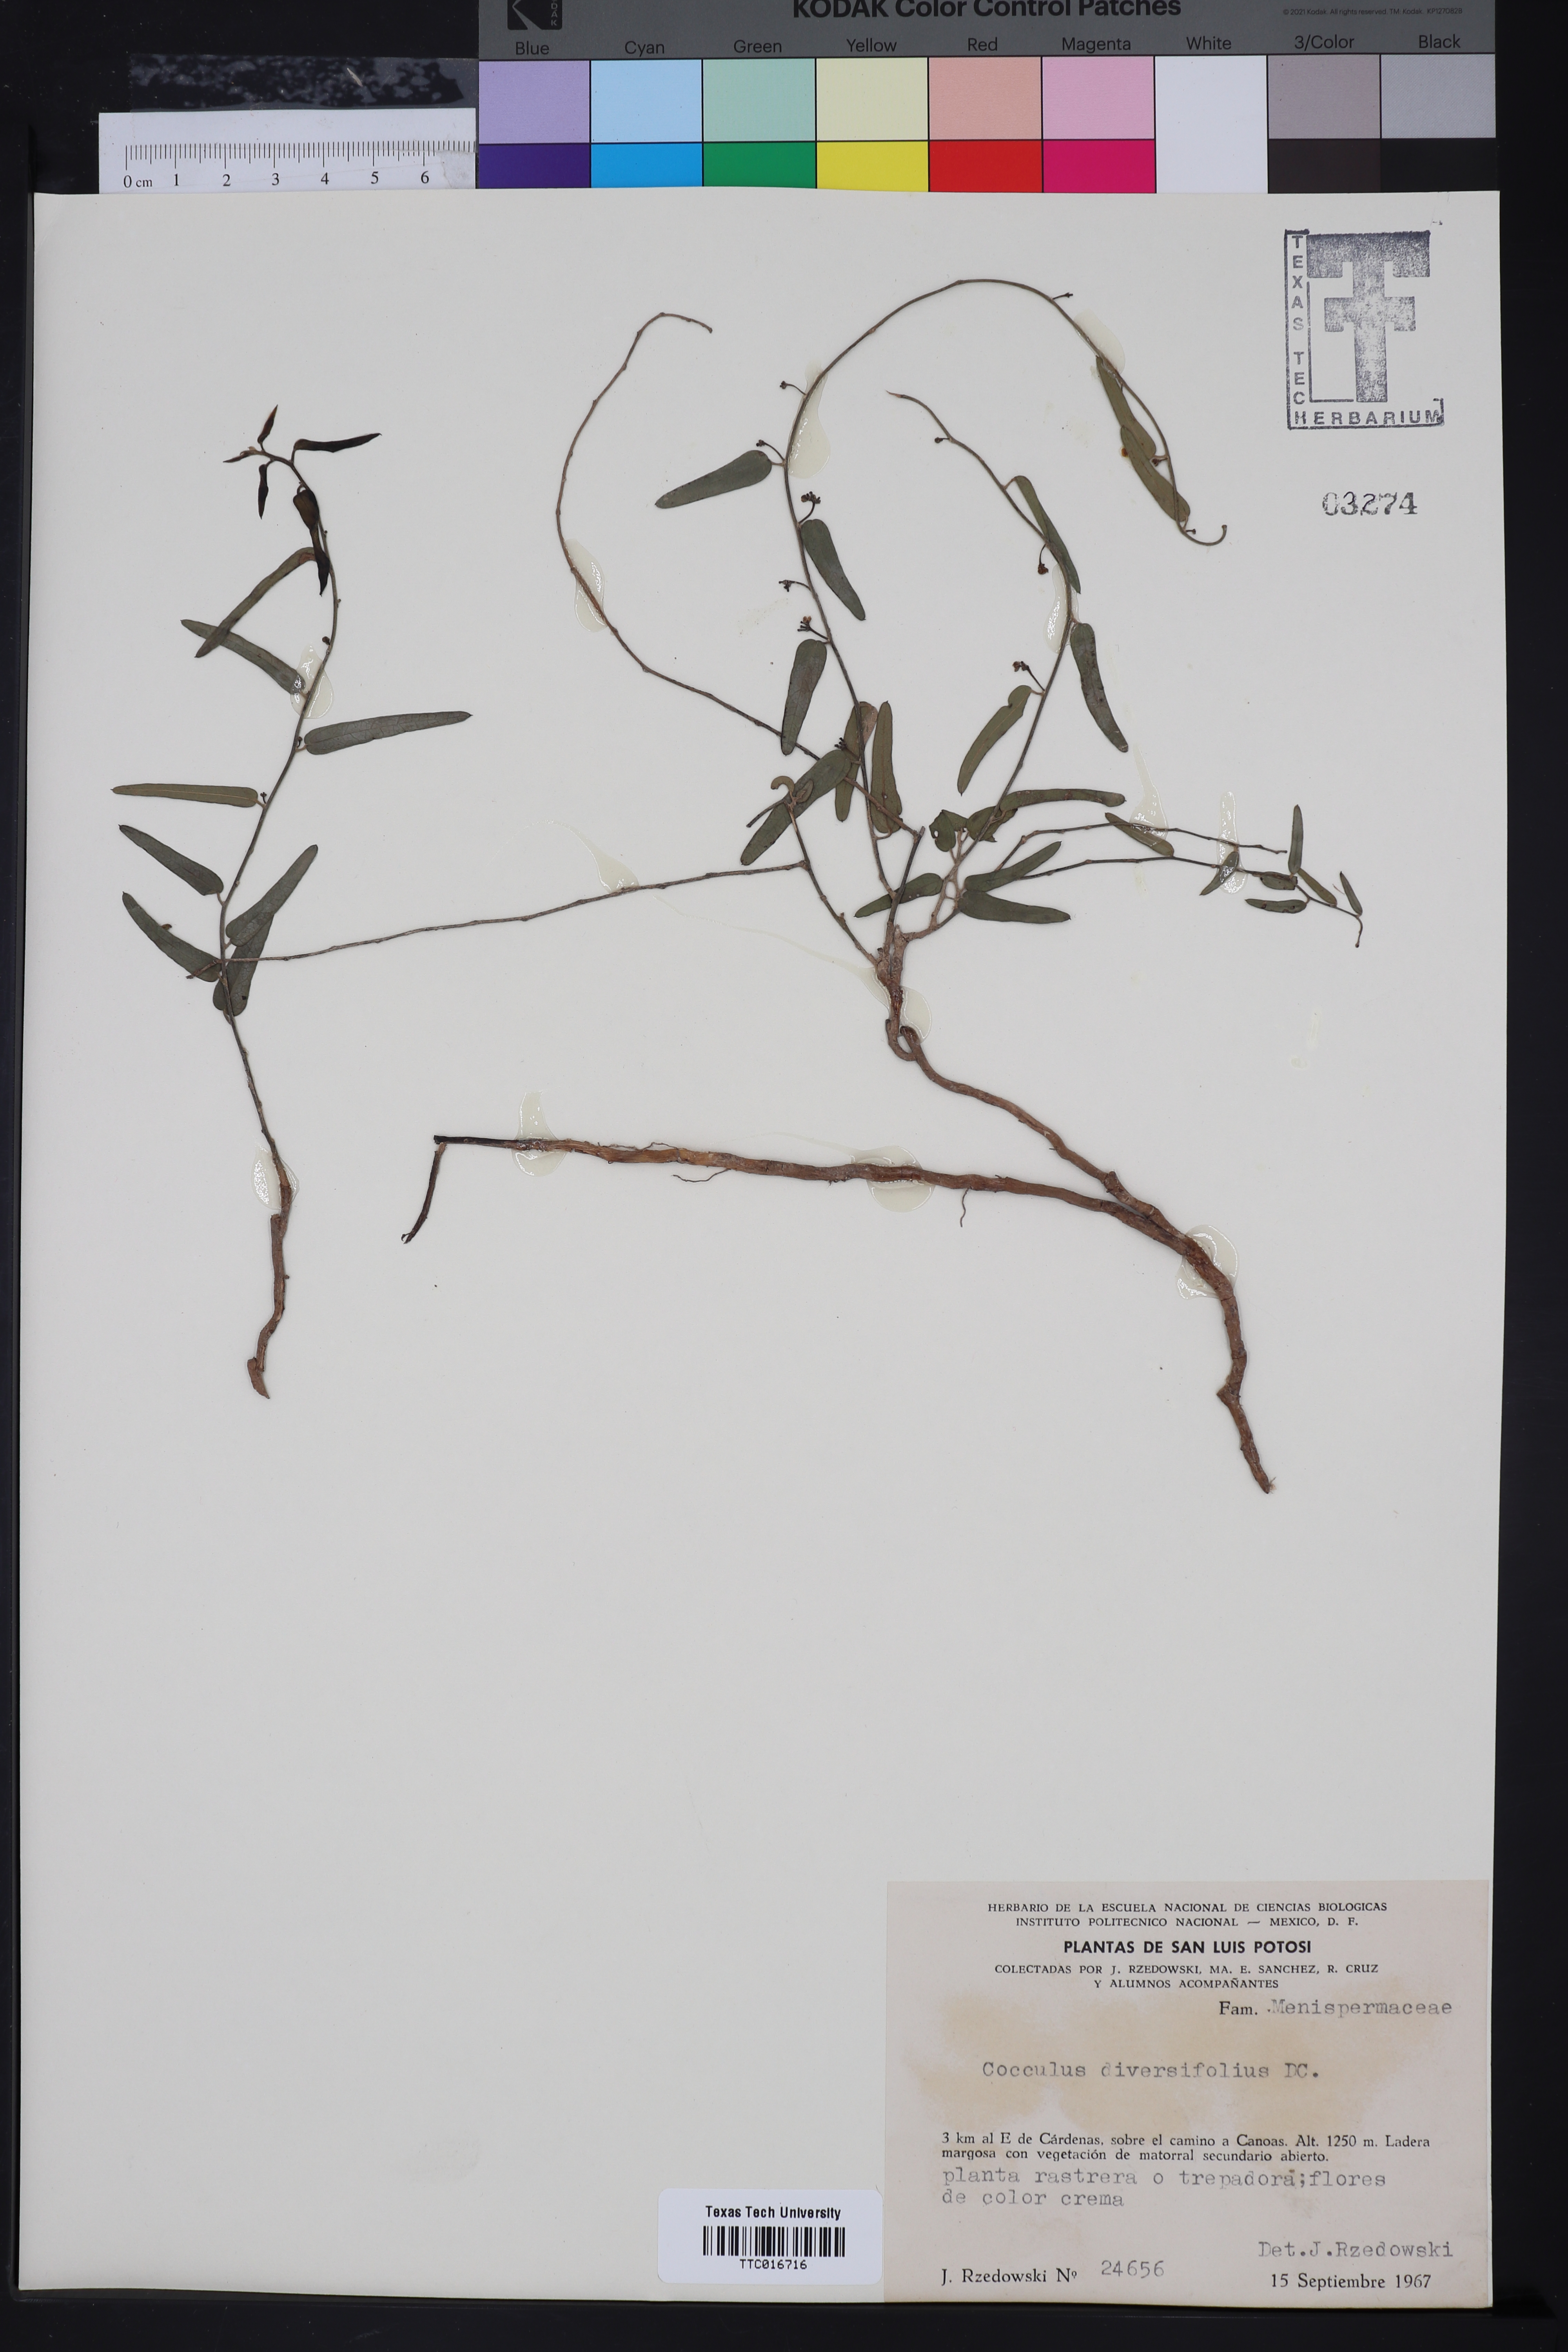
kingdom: Plantae
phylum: Tracheophyta
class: Magnoliopsida
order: Ranunculales
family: Menispermaceae
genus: Cocculus
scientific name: Cocculus diversifolius
